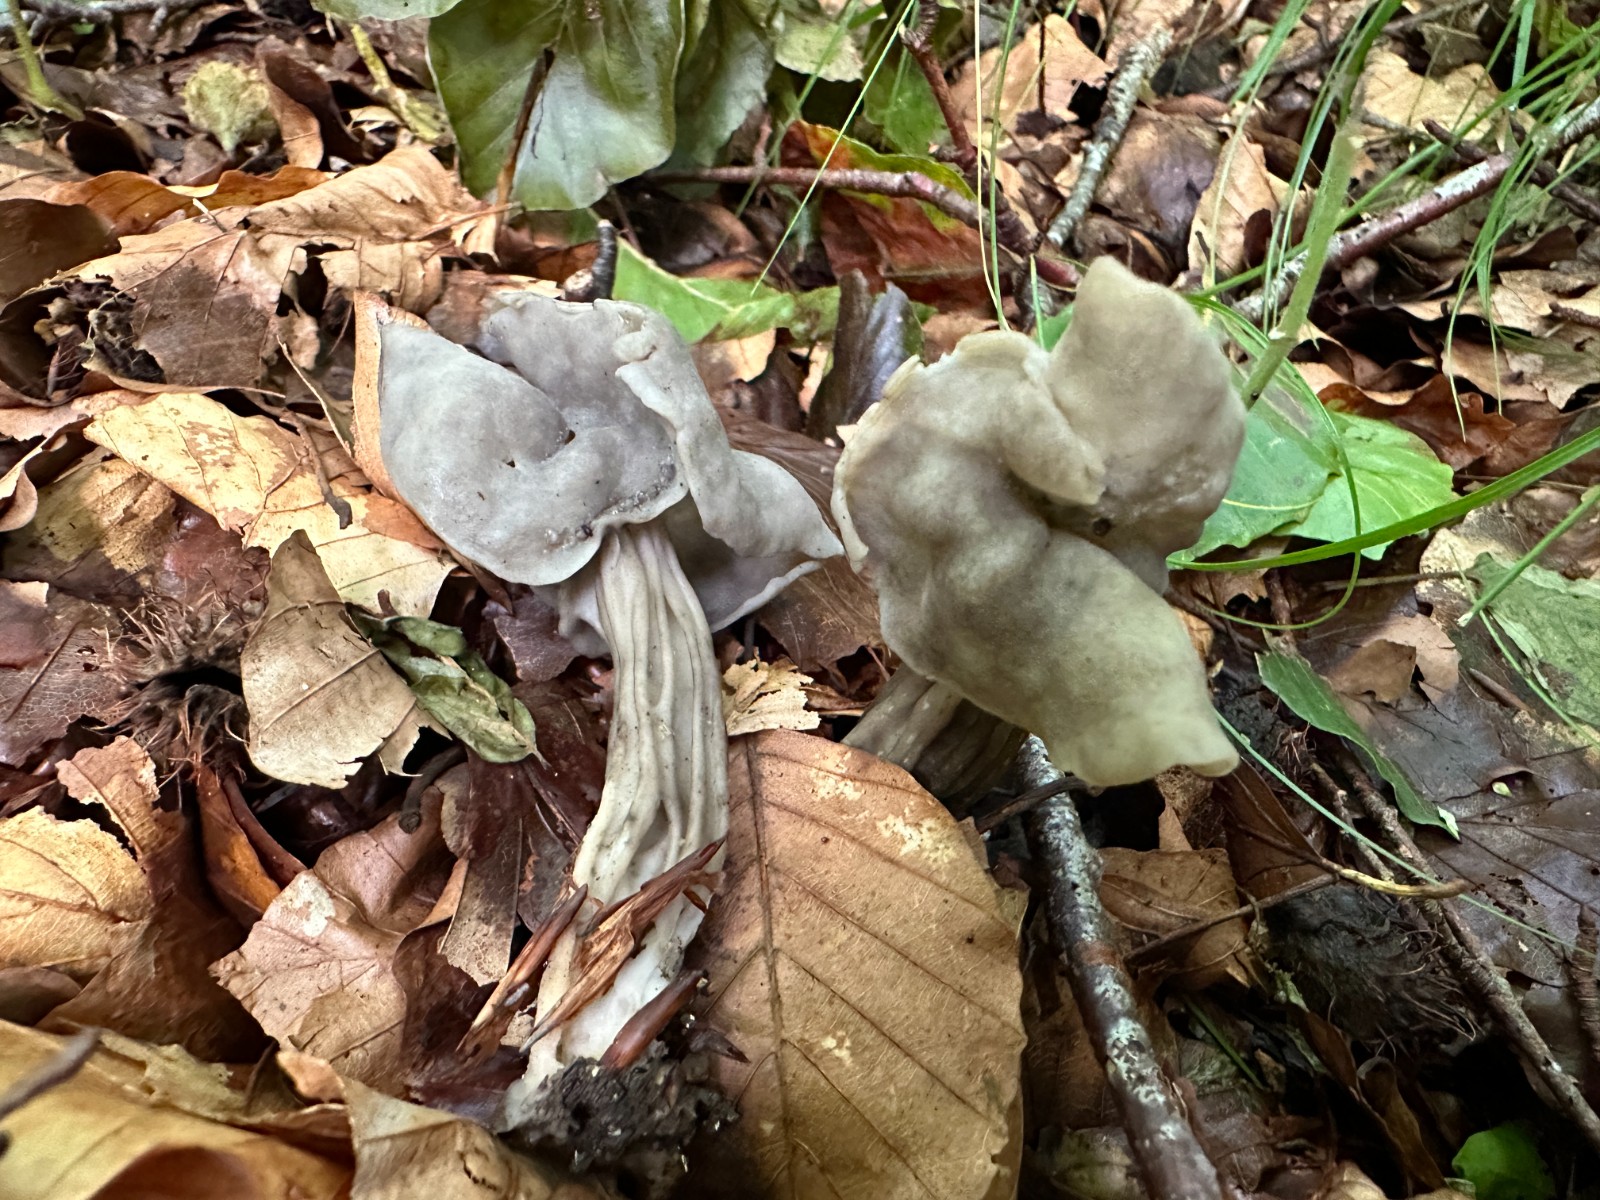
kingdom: Fungi
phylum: Ascomycota
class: Pezizomycetes
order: Pezizales
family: Helvellaceae
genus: Helvella
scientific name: Helvella lacunosa
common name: grubet foldhat
